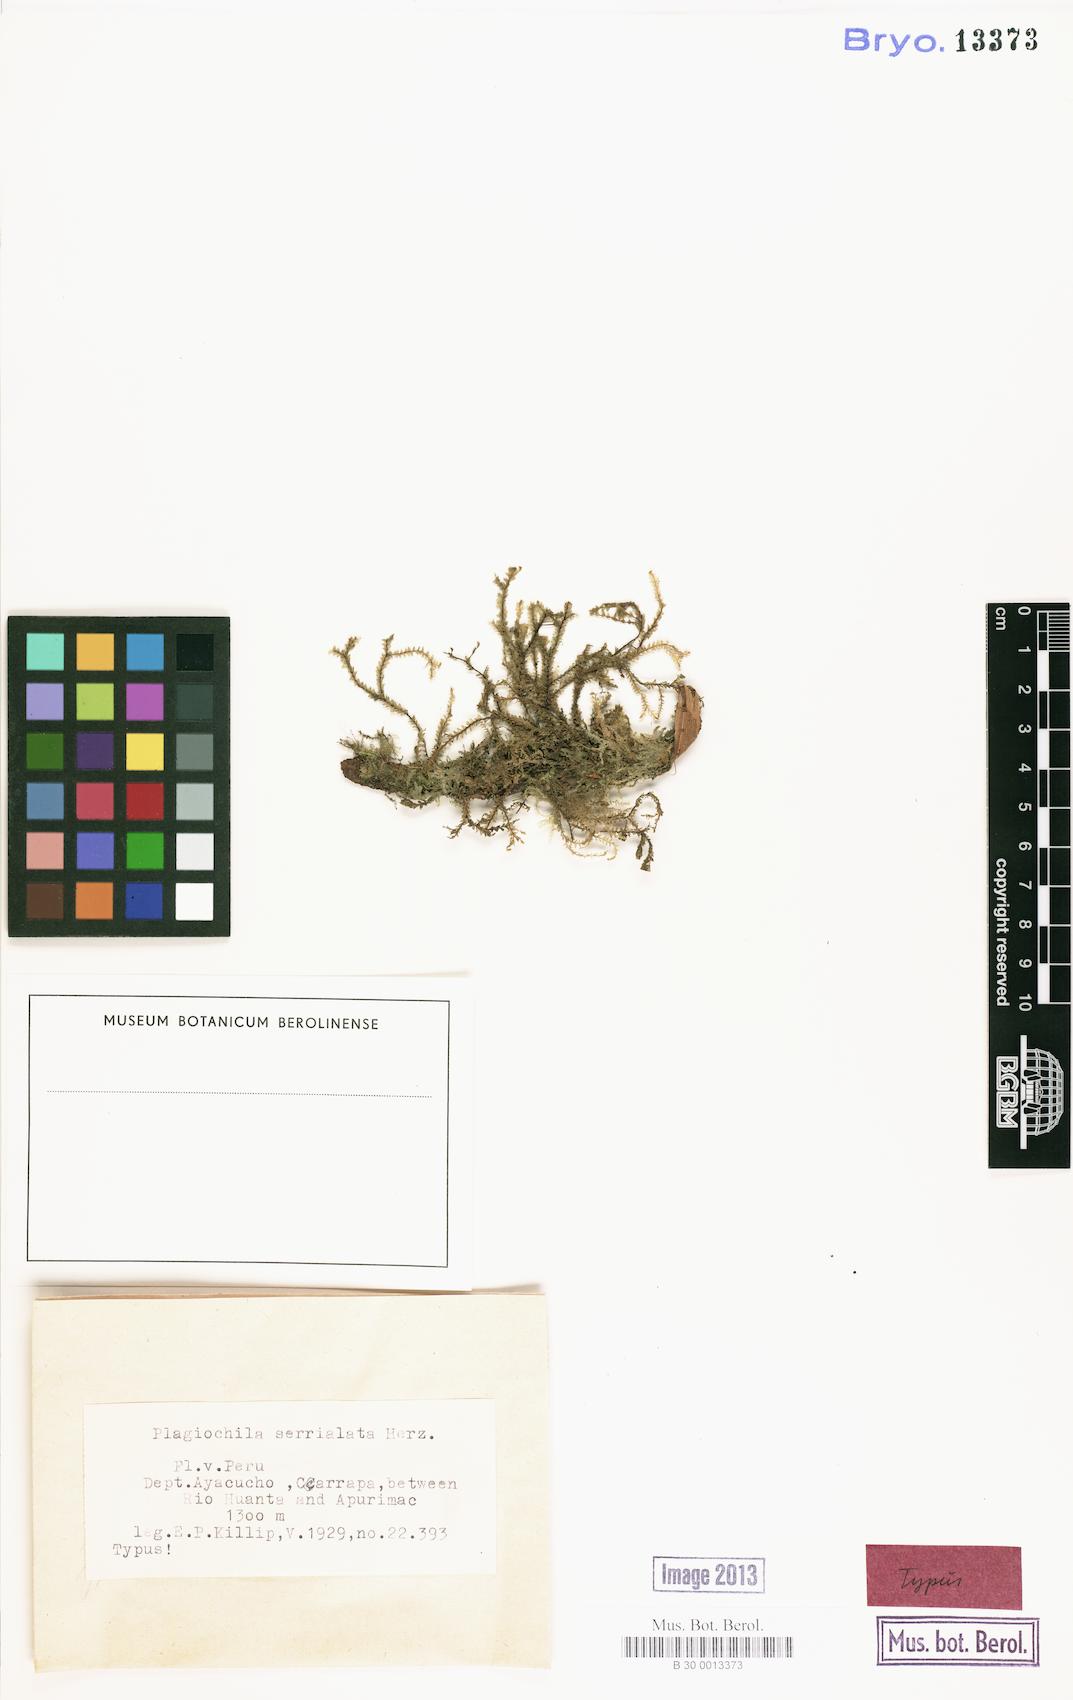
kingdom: Plantae
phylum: Marchantiophyta
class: Jungermanniopsida
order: Jungermanniales
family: Plagiochilaceae
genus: Plagiochila
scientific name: Plagiochila serrialata
